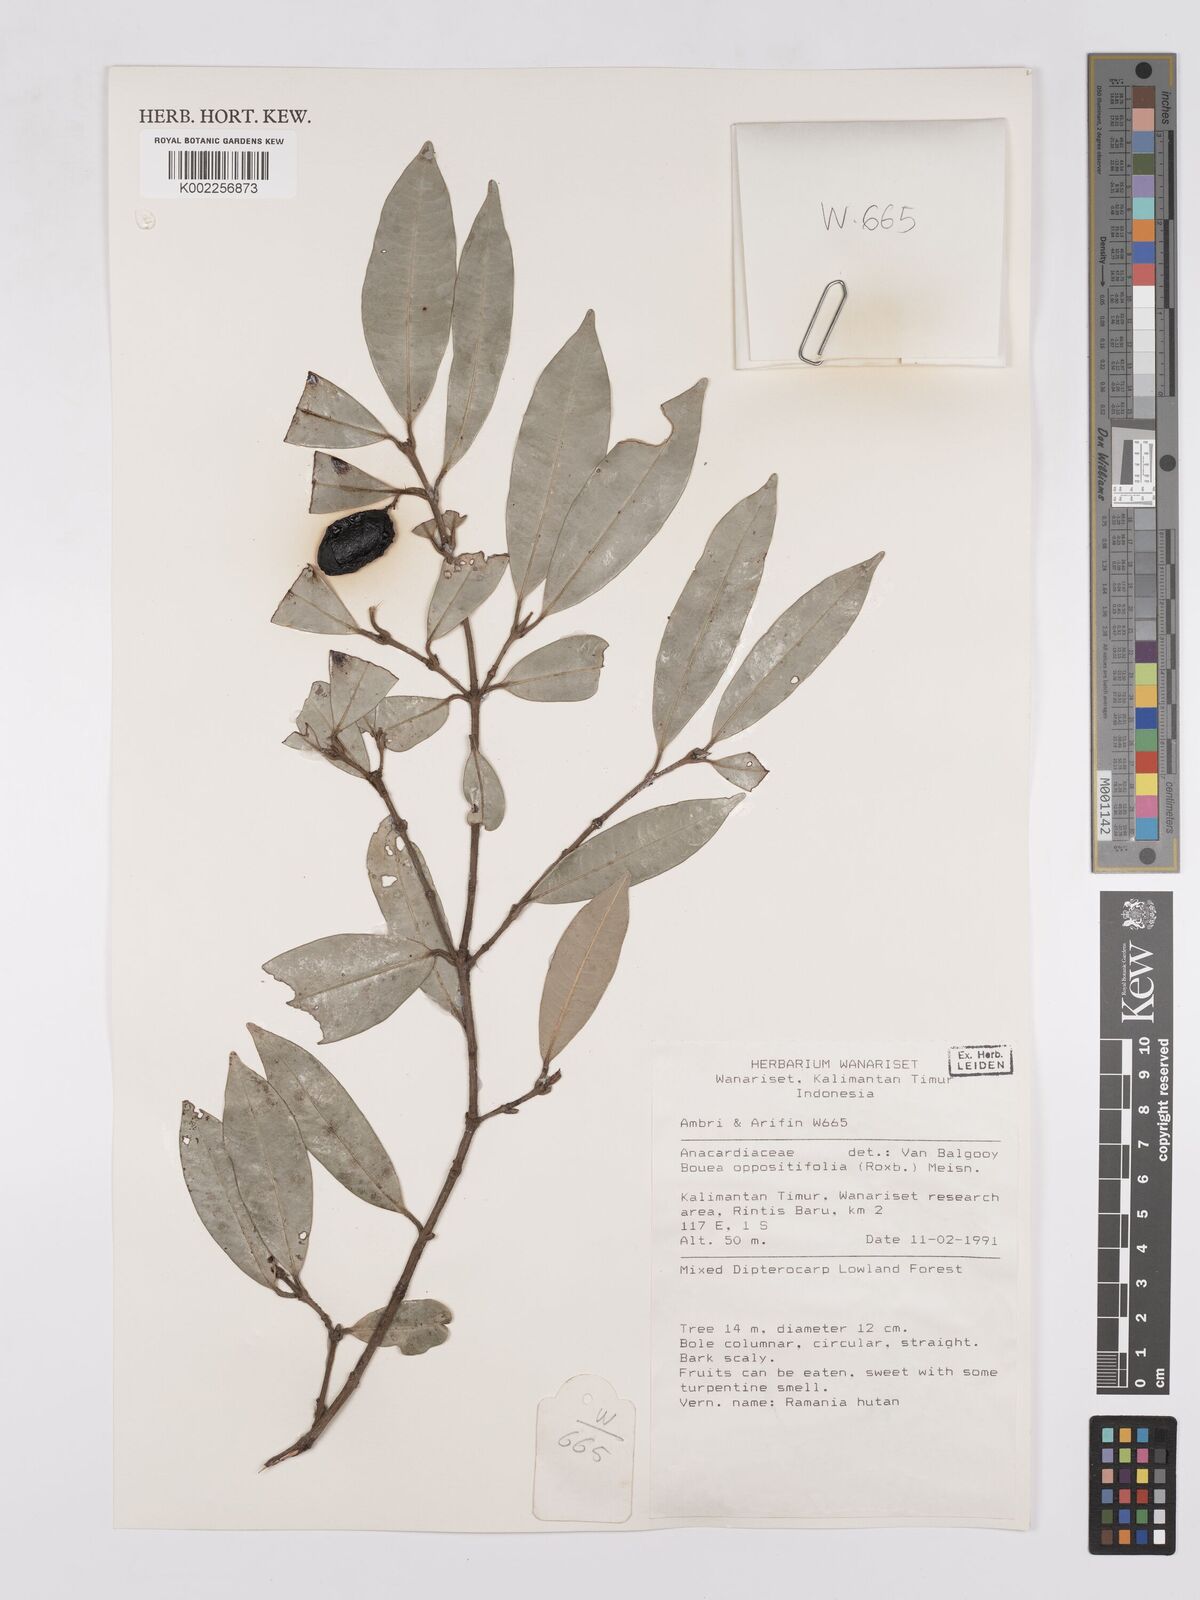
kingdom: Plantae
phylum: Tracheophyta
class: Magnoliopsida
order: Sapindales
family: Anacardiaceae
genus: Bouea
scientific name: Bouea oppositifolia
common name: Narrow-leaved kundang
